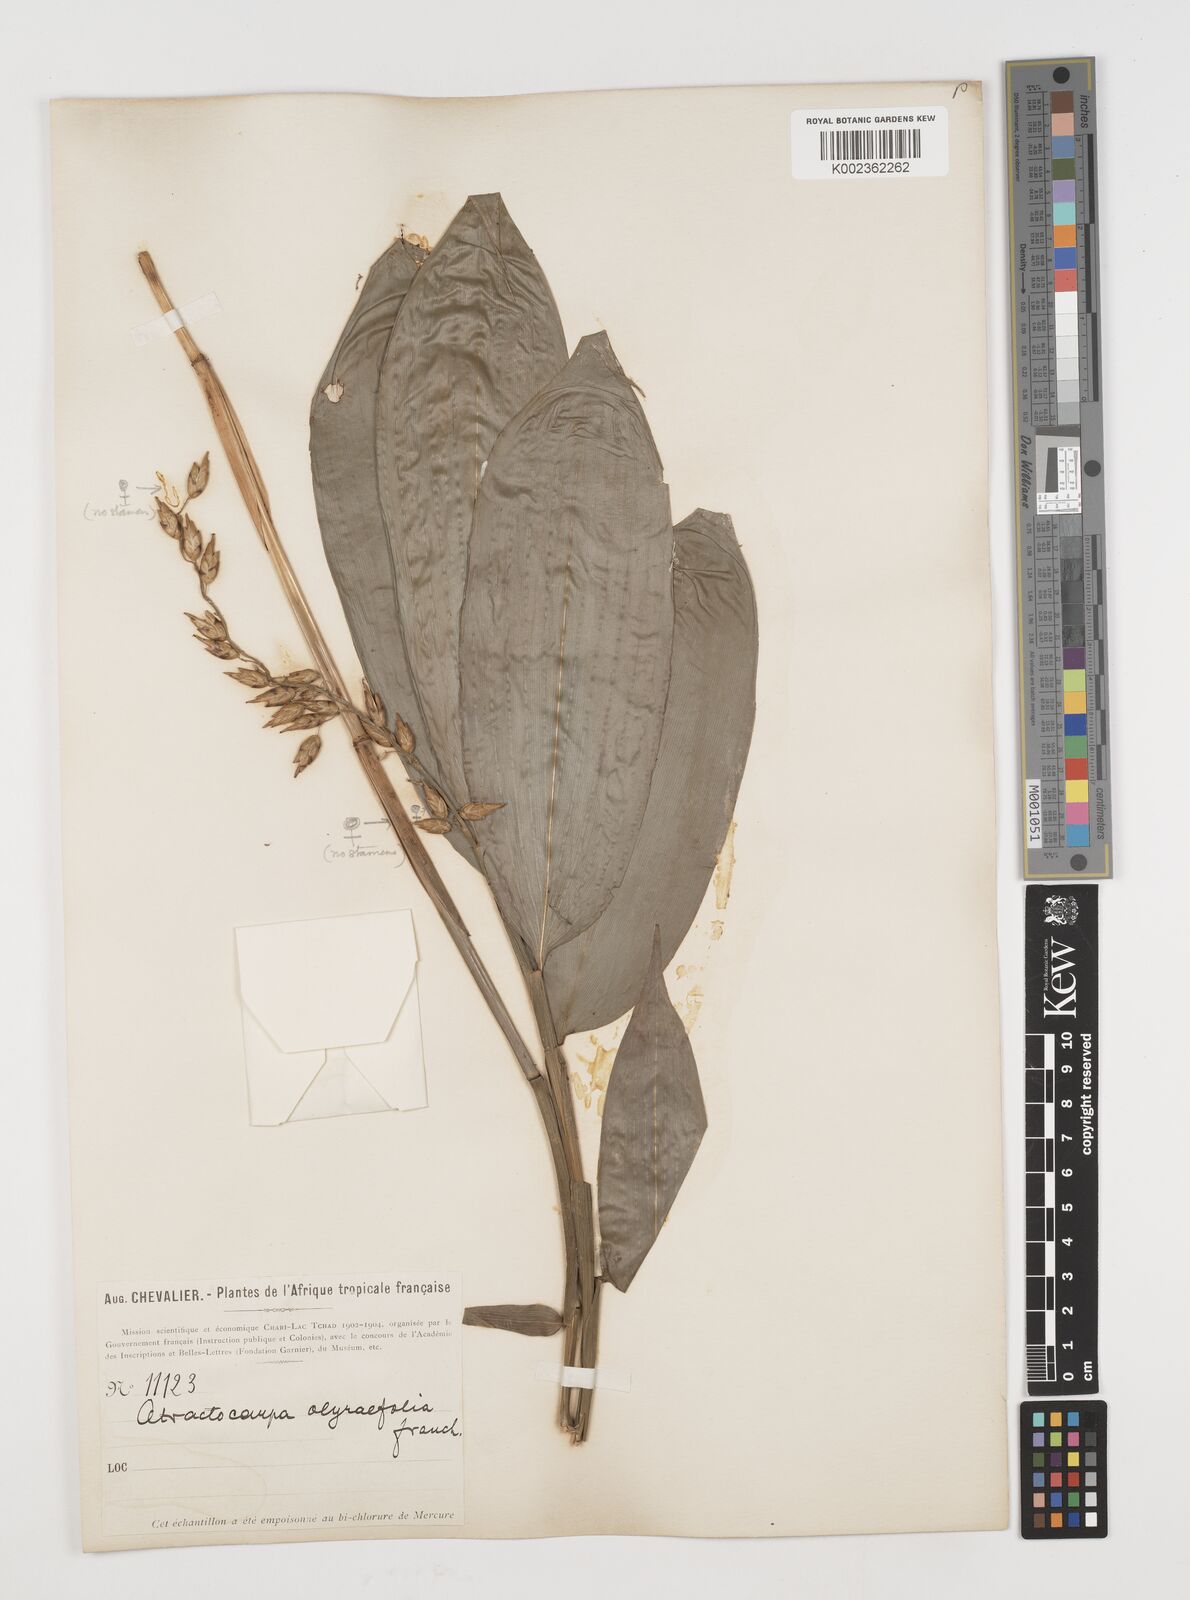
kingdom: Plantae
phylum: Tracheophyta
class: Liliopsida
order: Poales
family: Poaceae
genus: Puelia
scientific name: Puelia olyriformis
